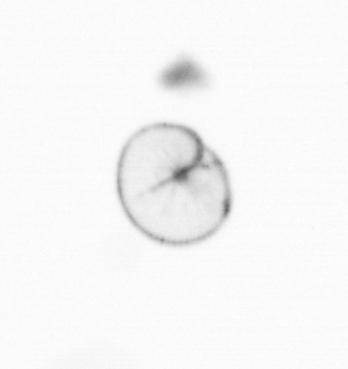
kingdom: Chromista
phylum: Myzozoa
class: Dinophyceae
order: Noctilucales
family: Noctilucaceae
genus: Noctiluca
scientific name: Noctiluca scintillans
